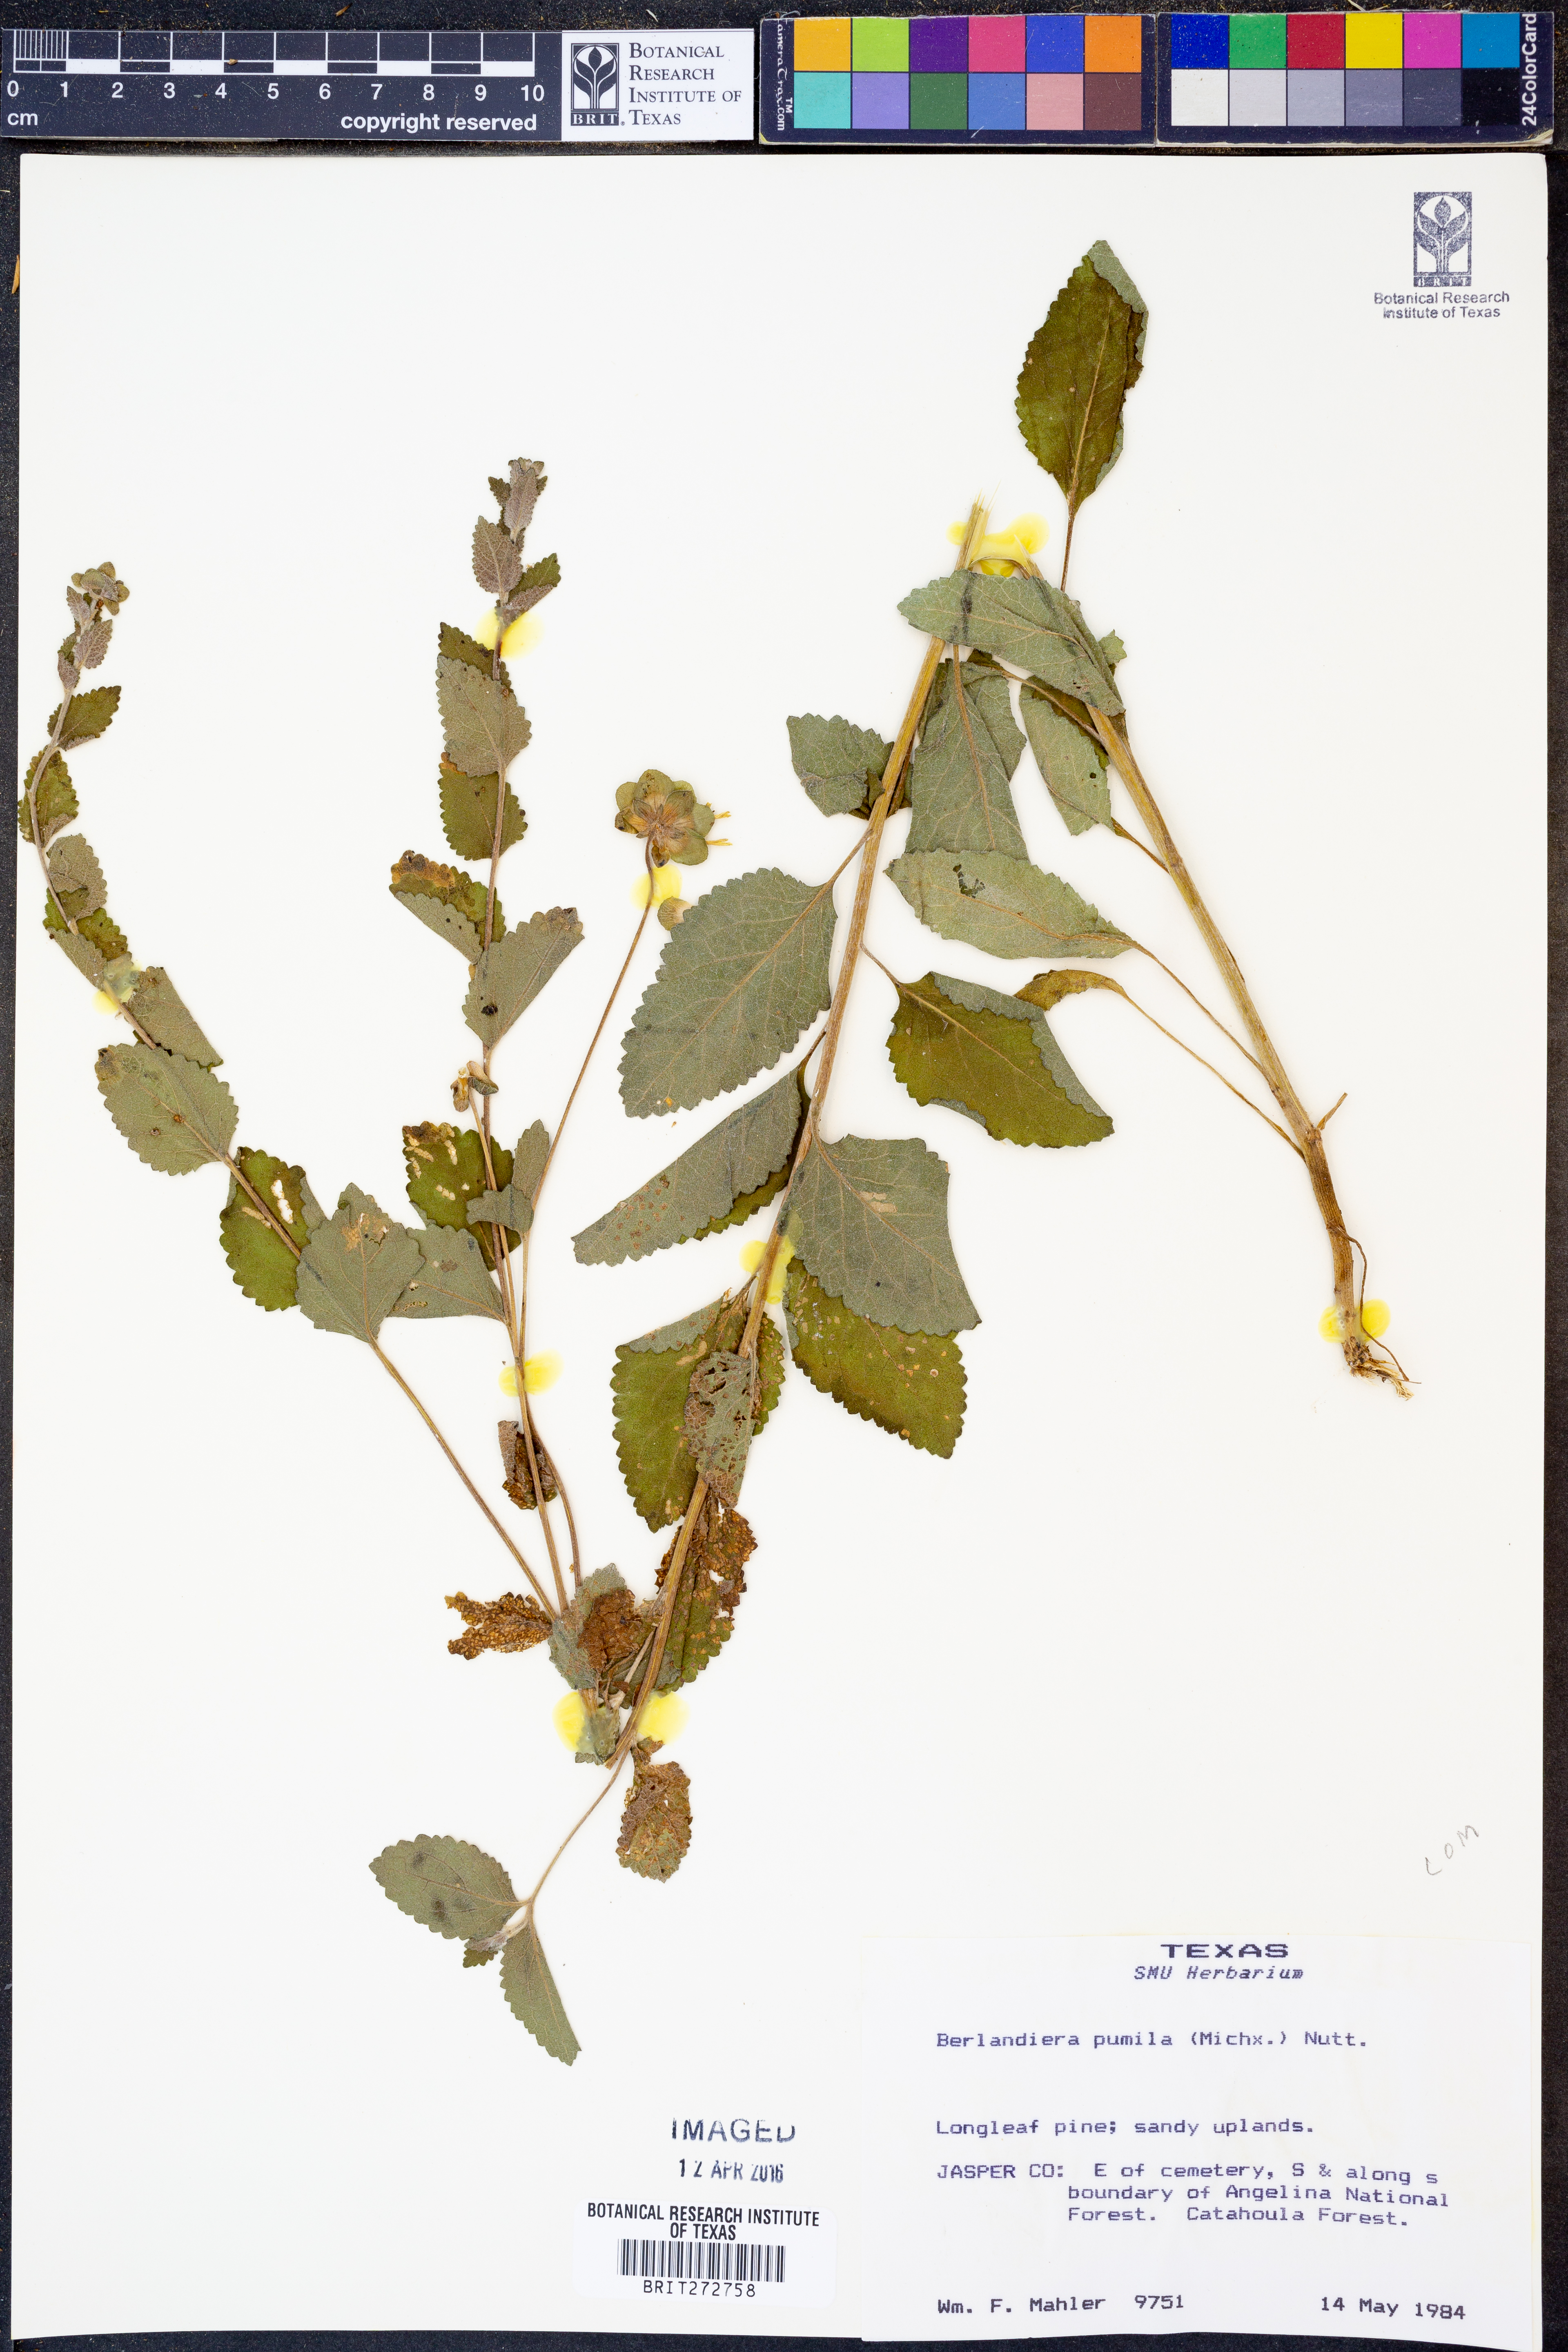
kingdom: Plantae
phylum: Tracheophyta
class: Magnoliopsida
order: Asterales
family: Asteraceae
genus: Berlandiera
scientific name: Berlandiera pumila
